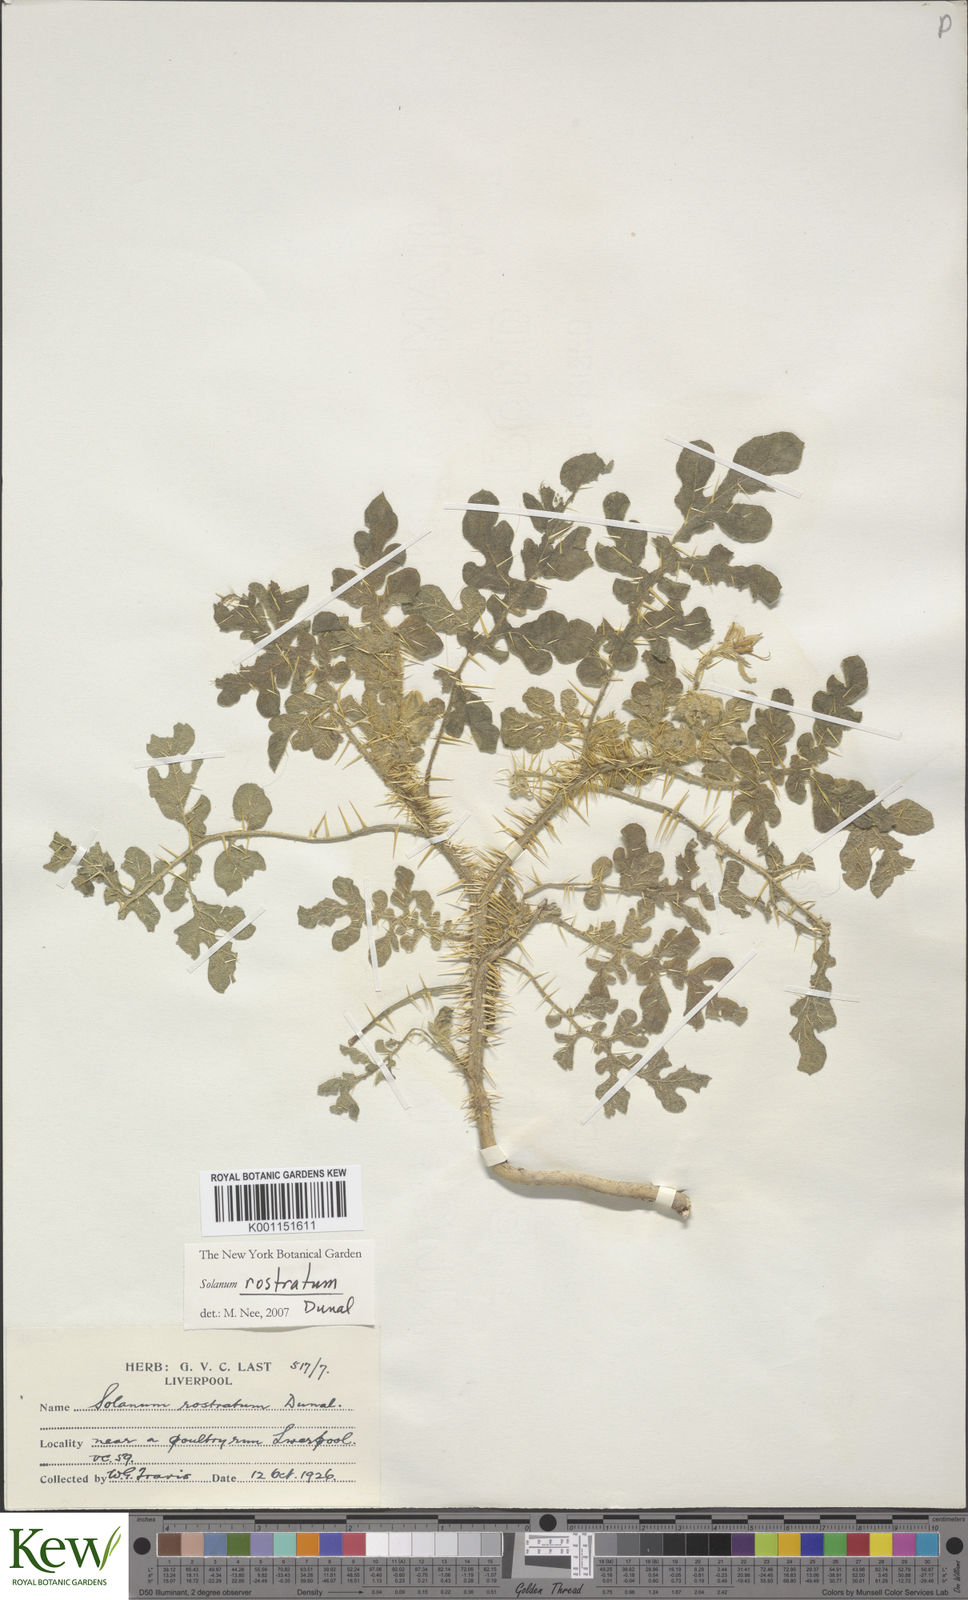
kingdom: Plantae
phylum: Tracheophyta
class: Magnoliopsida
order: Solanales
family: Solanaceae
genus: Solanum
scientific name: Solanum angustifolium
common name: Buffalobur nightshade
